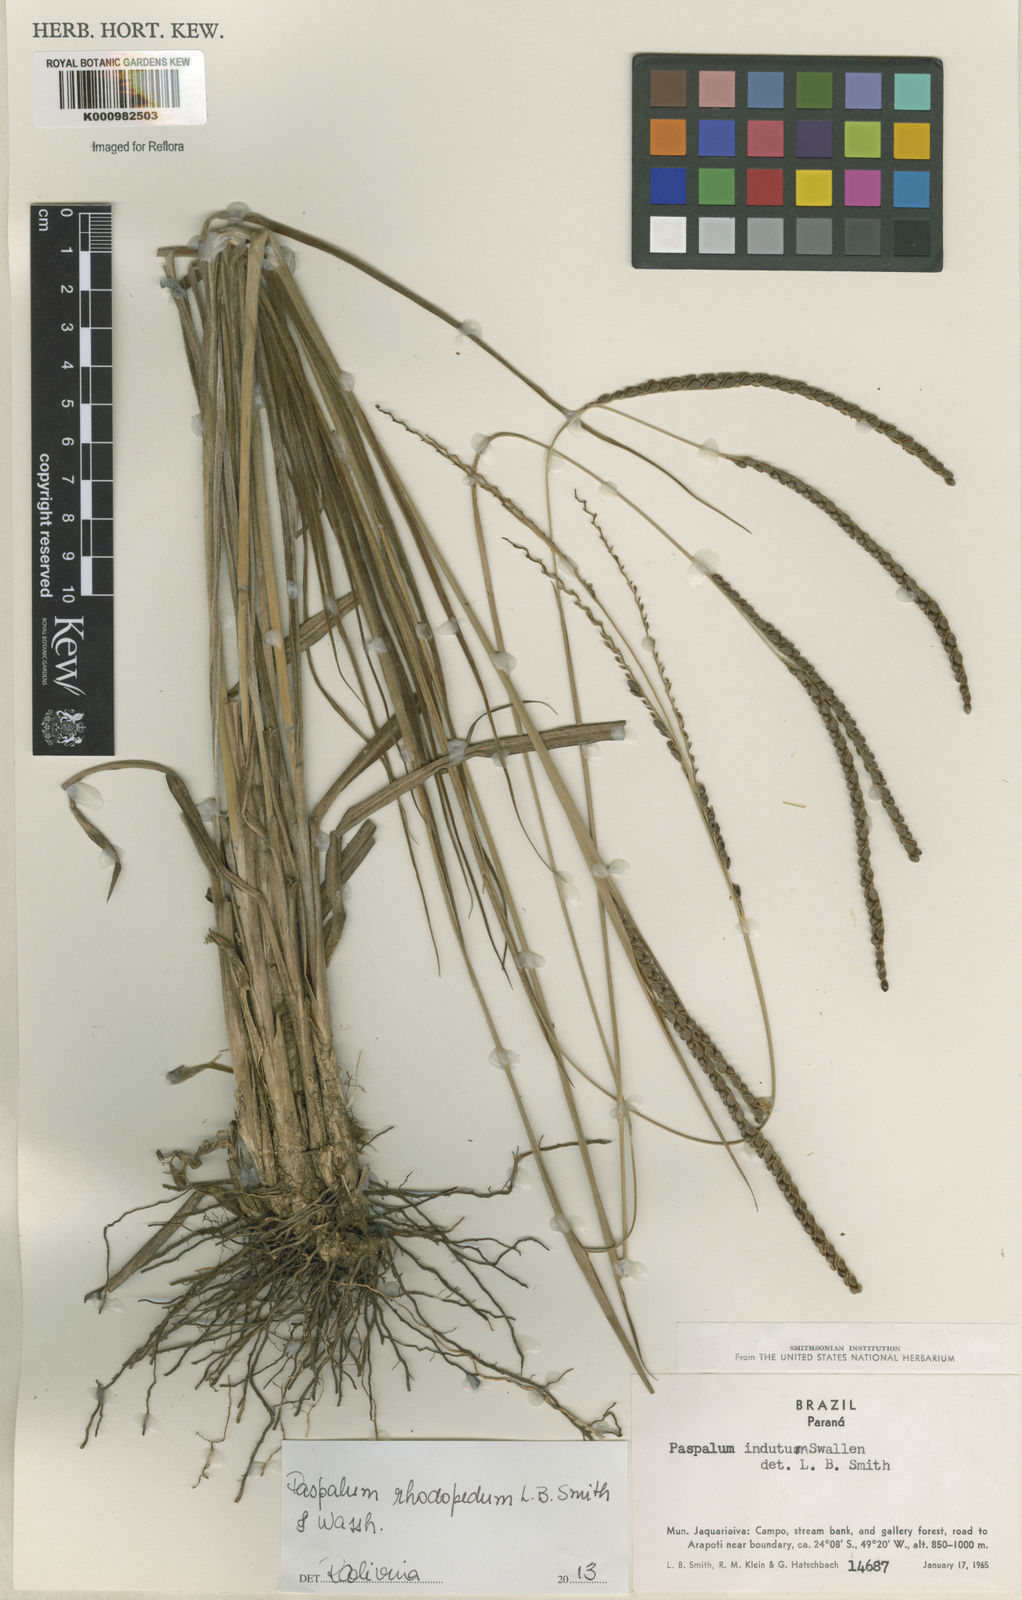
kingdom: Plantae
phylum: Tracheophyta
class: Liliopsida
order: Poales
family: Poaceae
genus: Paspalum
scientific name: Paspalum guenoarum
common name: Wintergreen paspalum
